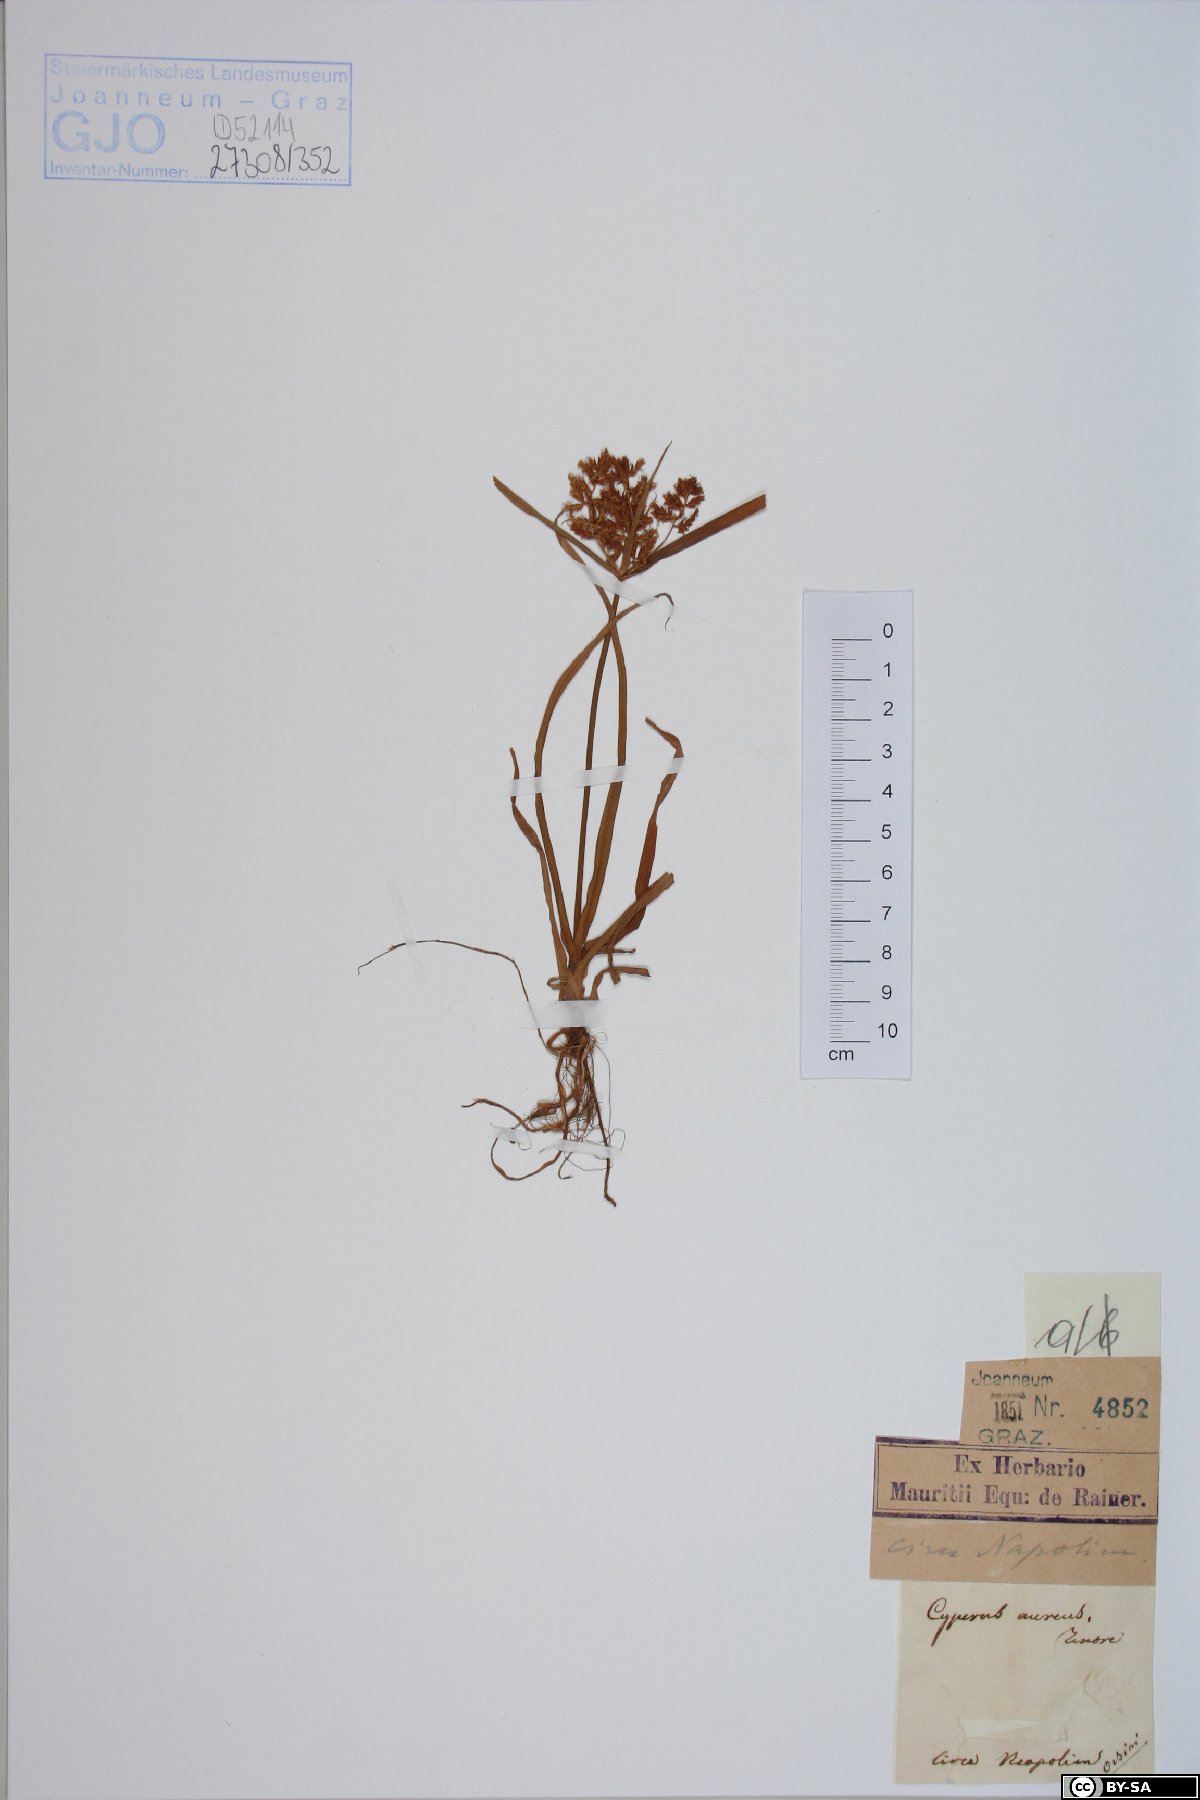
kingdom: Plantae
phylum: Tracheophyta
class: Liliopsida
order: Poales
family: Cyperaceae
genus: Cyperus
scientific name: Cyperus amabilis
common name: Foothill flat sedge
